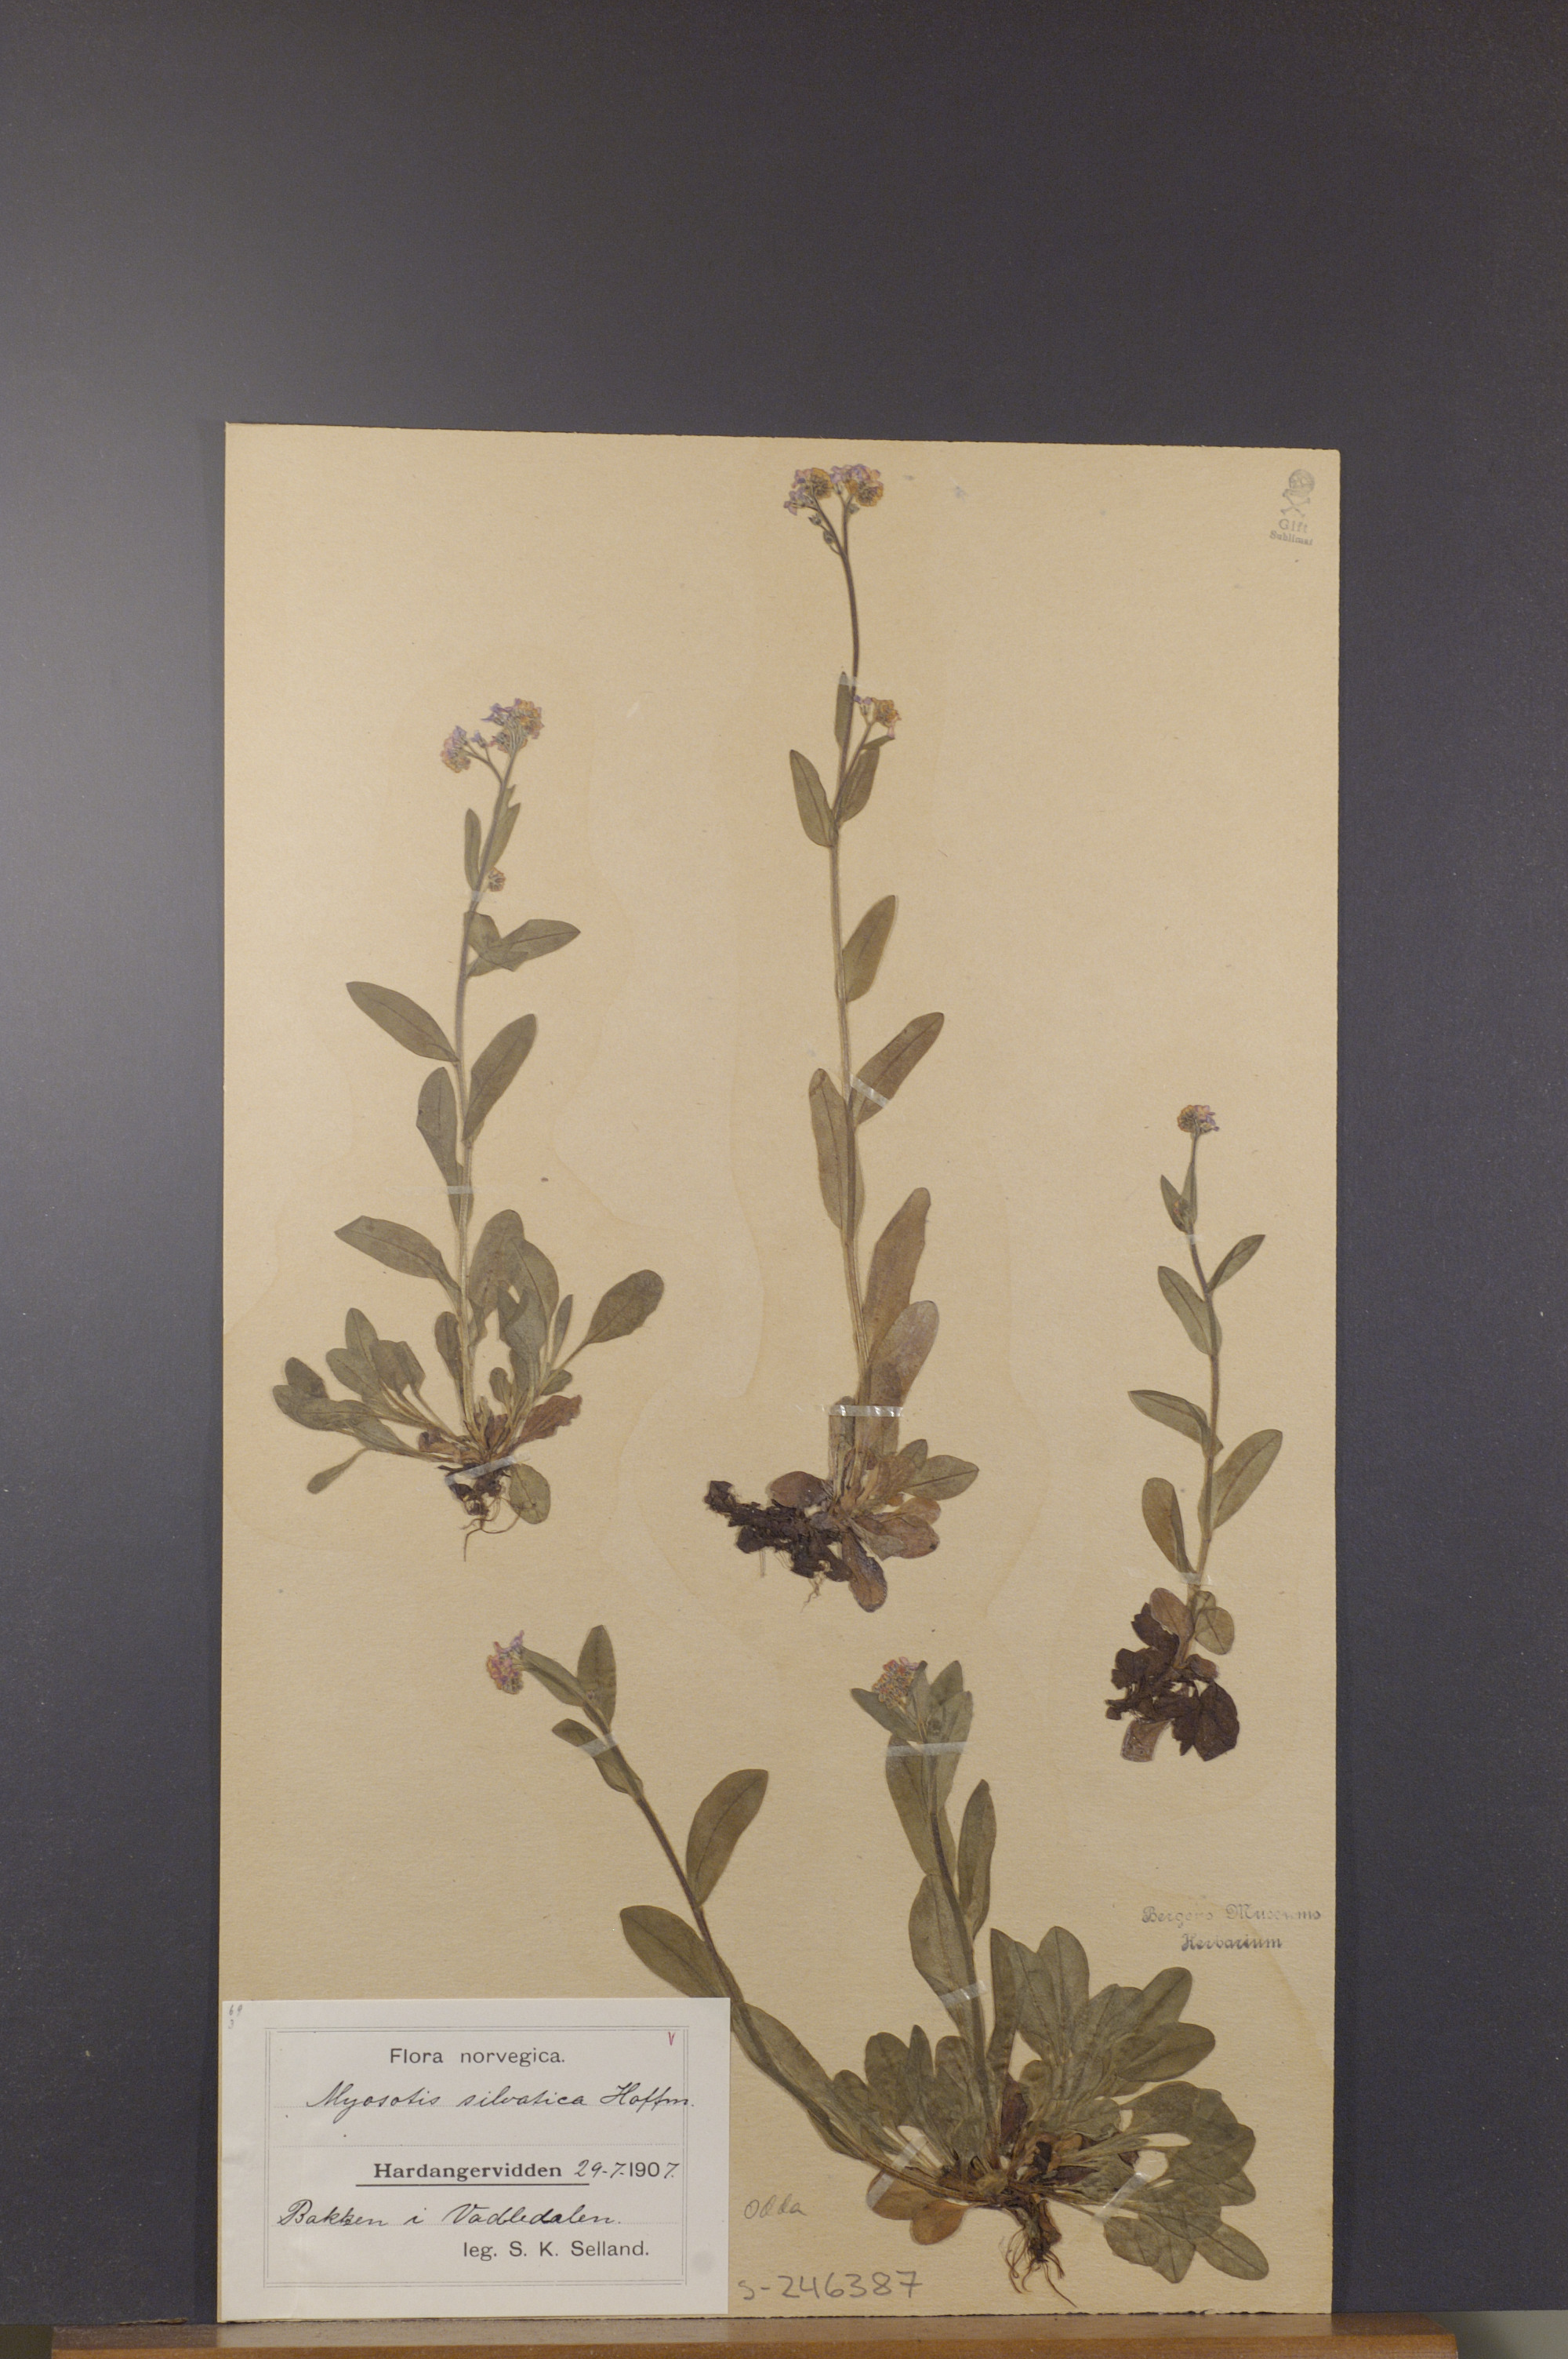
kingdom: Plantae
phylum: Tracheophyta
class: Magnoliopsida
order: Boraginales
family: Boraginaceae
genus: Myosotis
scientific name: Myosotis decumbens
